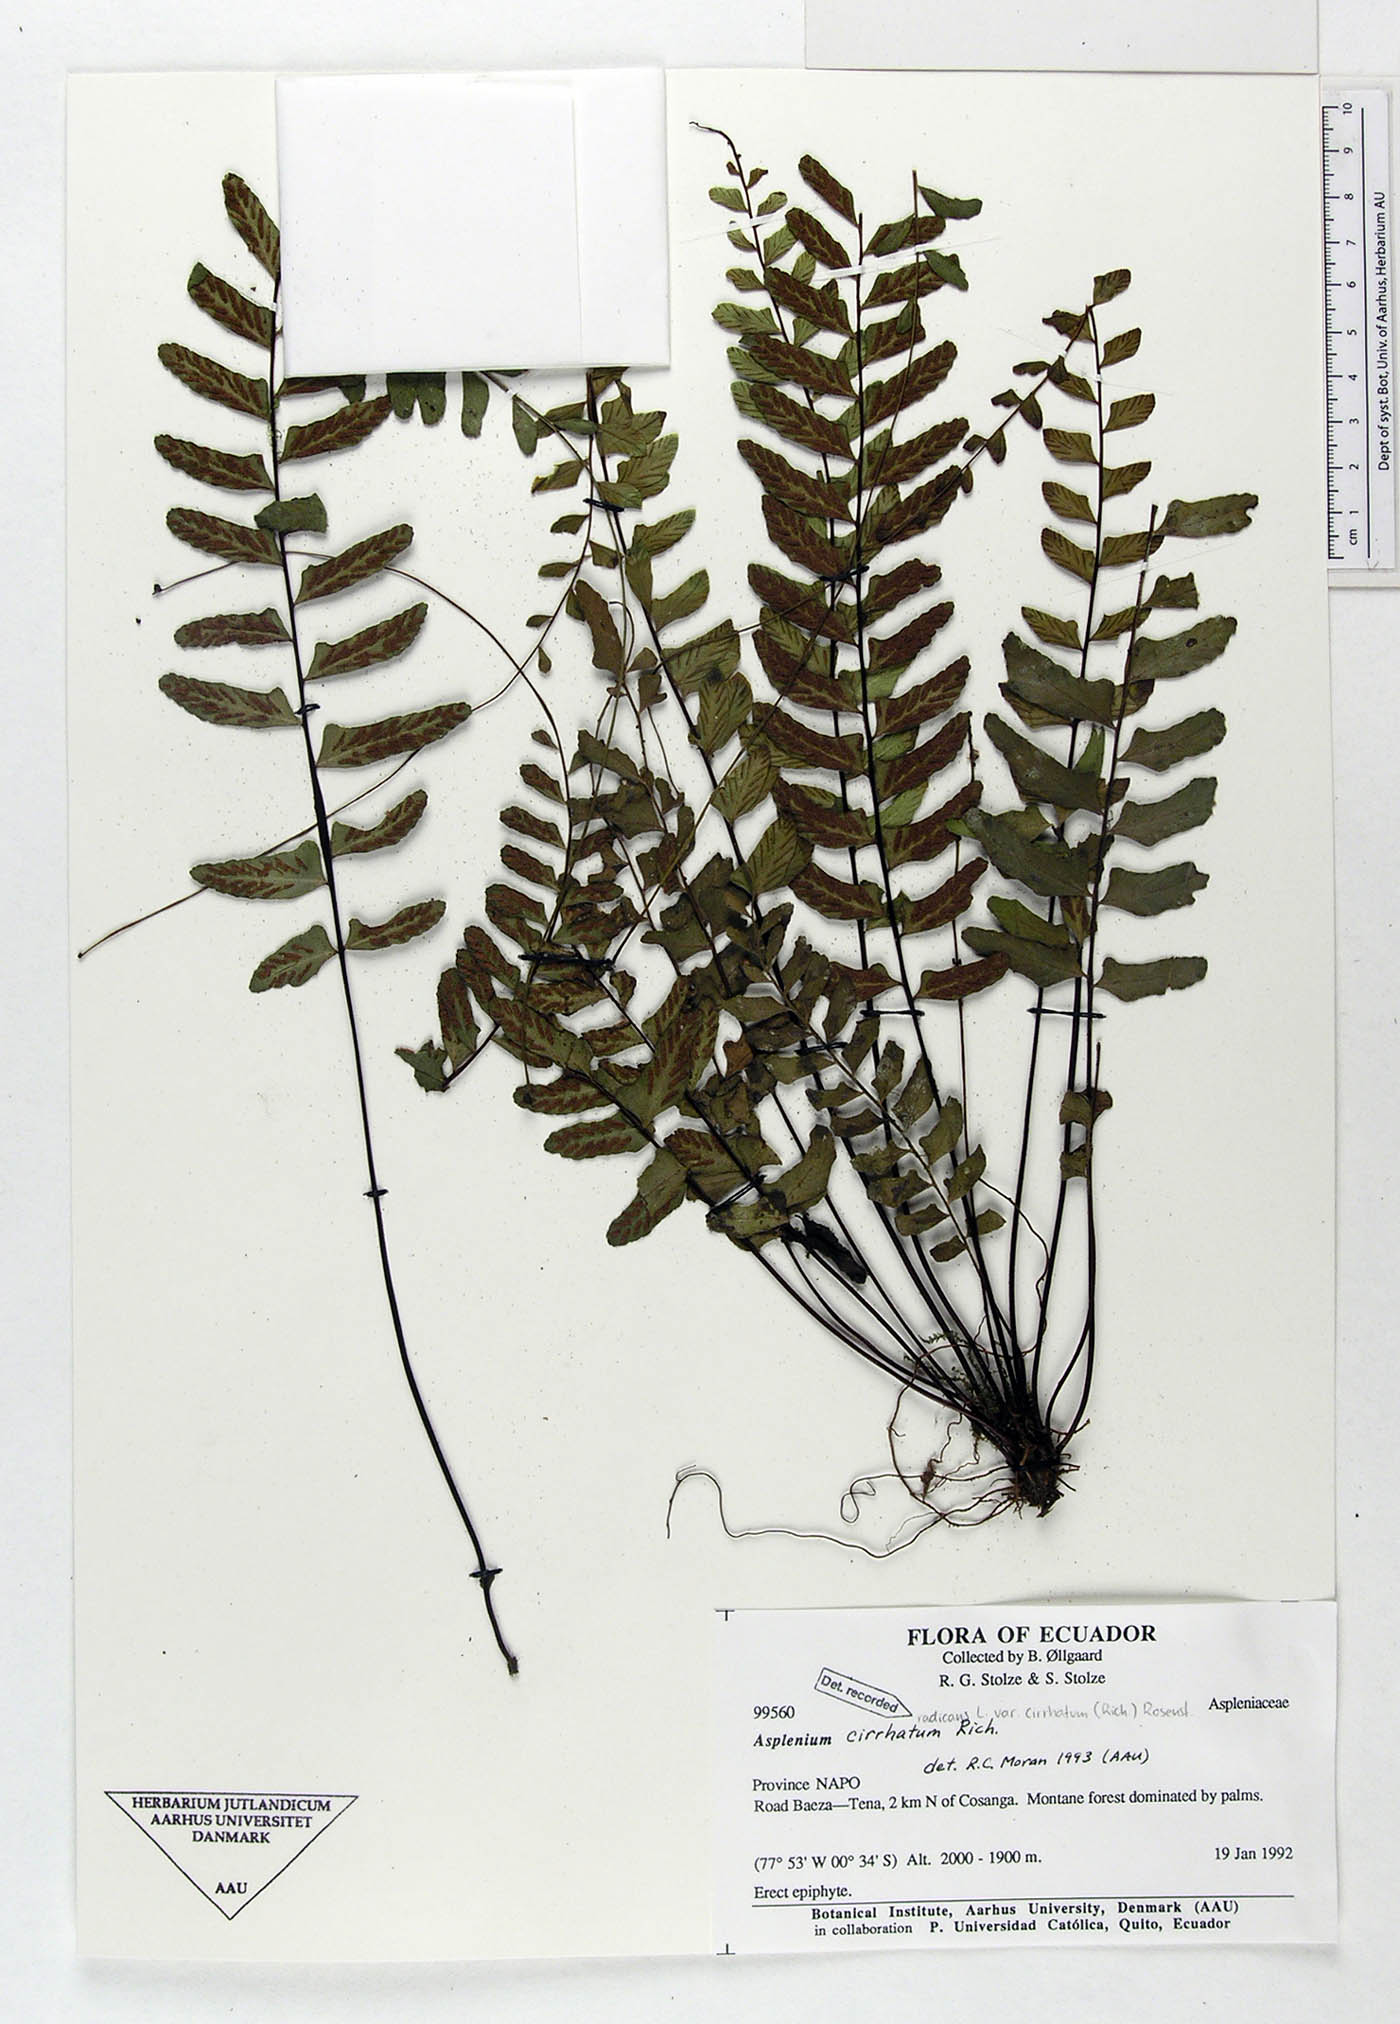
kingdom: Plantae
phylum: Tracheophyta
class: Polypodiopsida
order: Polypodiales
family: Aspleniaceae
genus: Asplenium
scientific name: Asplenium cirrhatum
